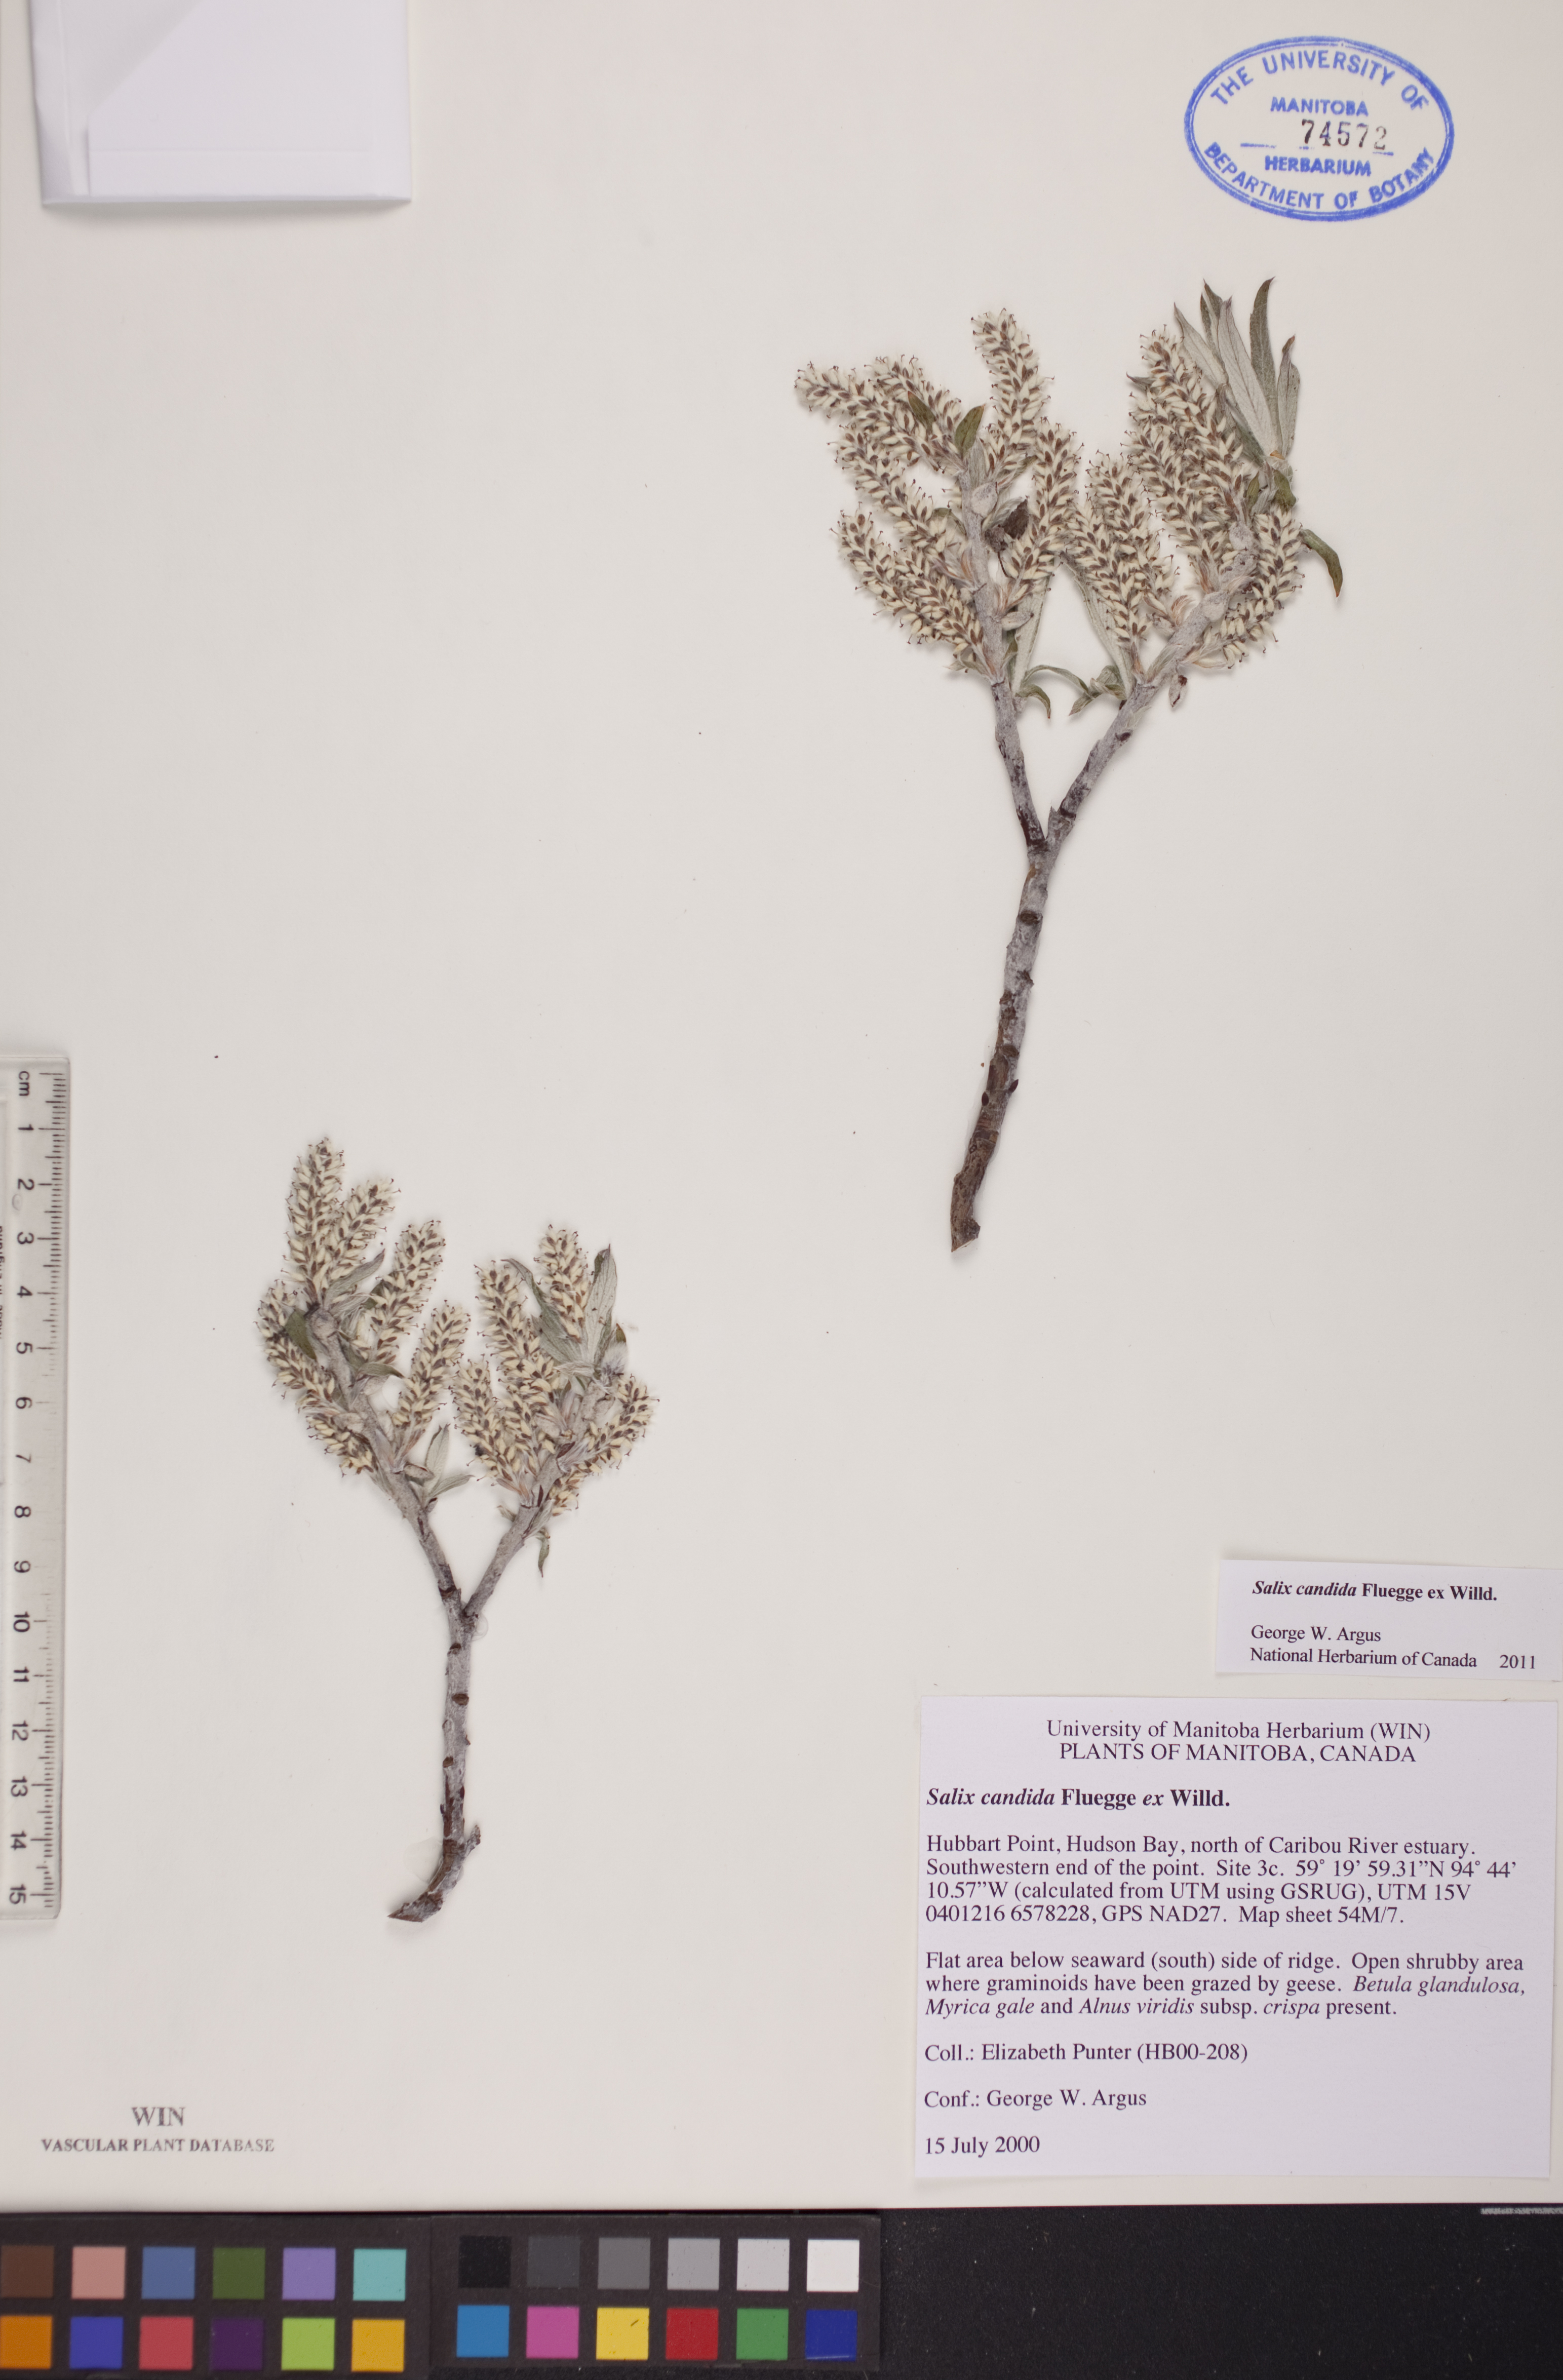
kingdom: Plantae
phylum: Tracheophyta
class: Magnoliopsida
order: Malpighiales
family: Salicaceae
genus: Salix
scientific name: Salix candida
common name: Hoary willow
